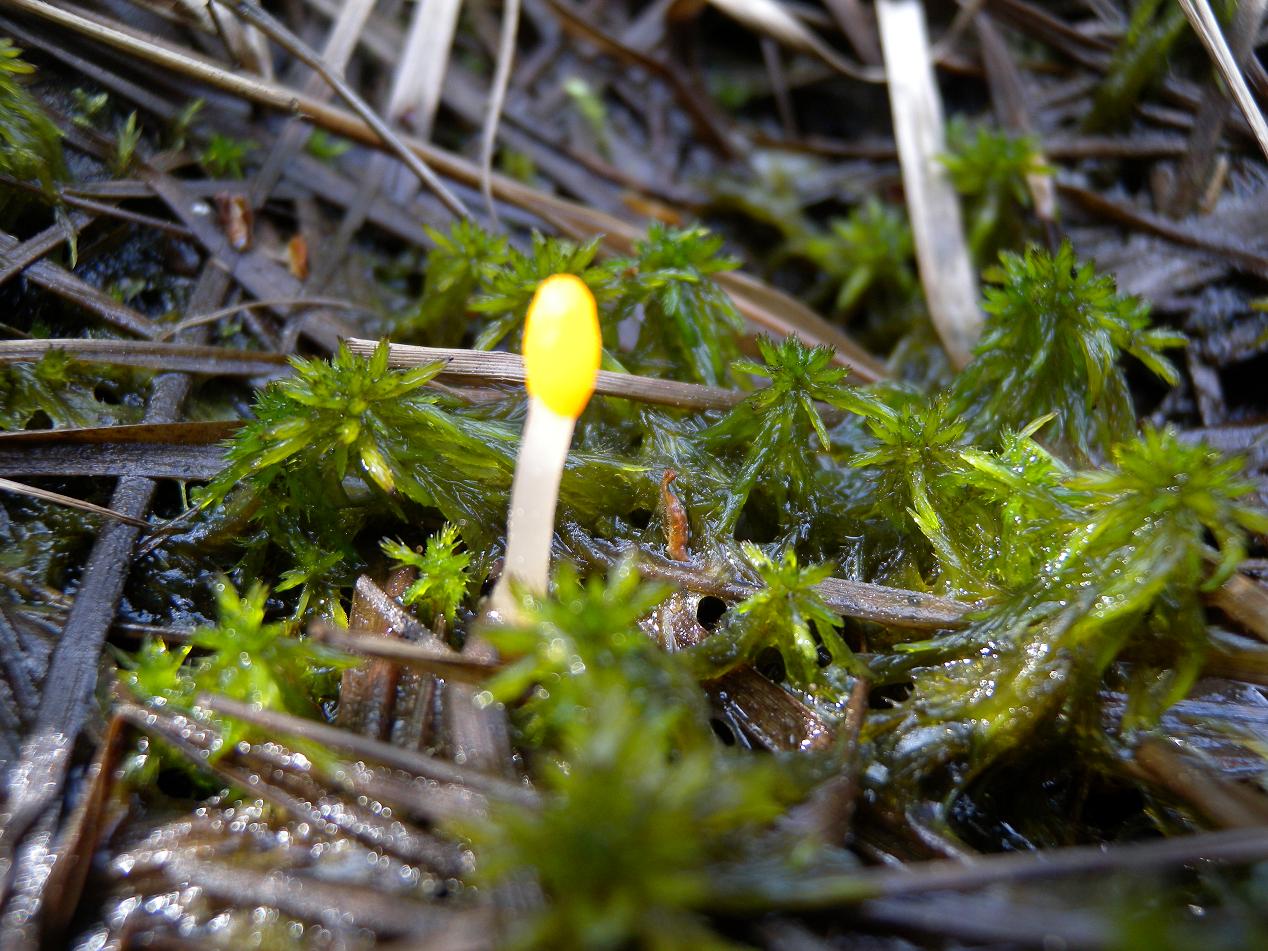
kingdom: Fungi
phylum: Ascomycota
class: Leotiomycetes
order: Helotiales
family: Cenangiaceae
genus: Mitrula
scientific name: Mitrula paludosa
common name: gul nøkketunge
